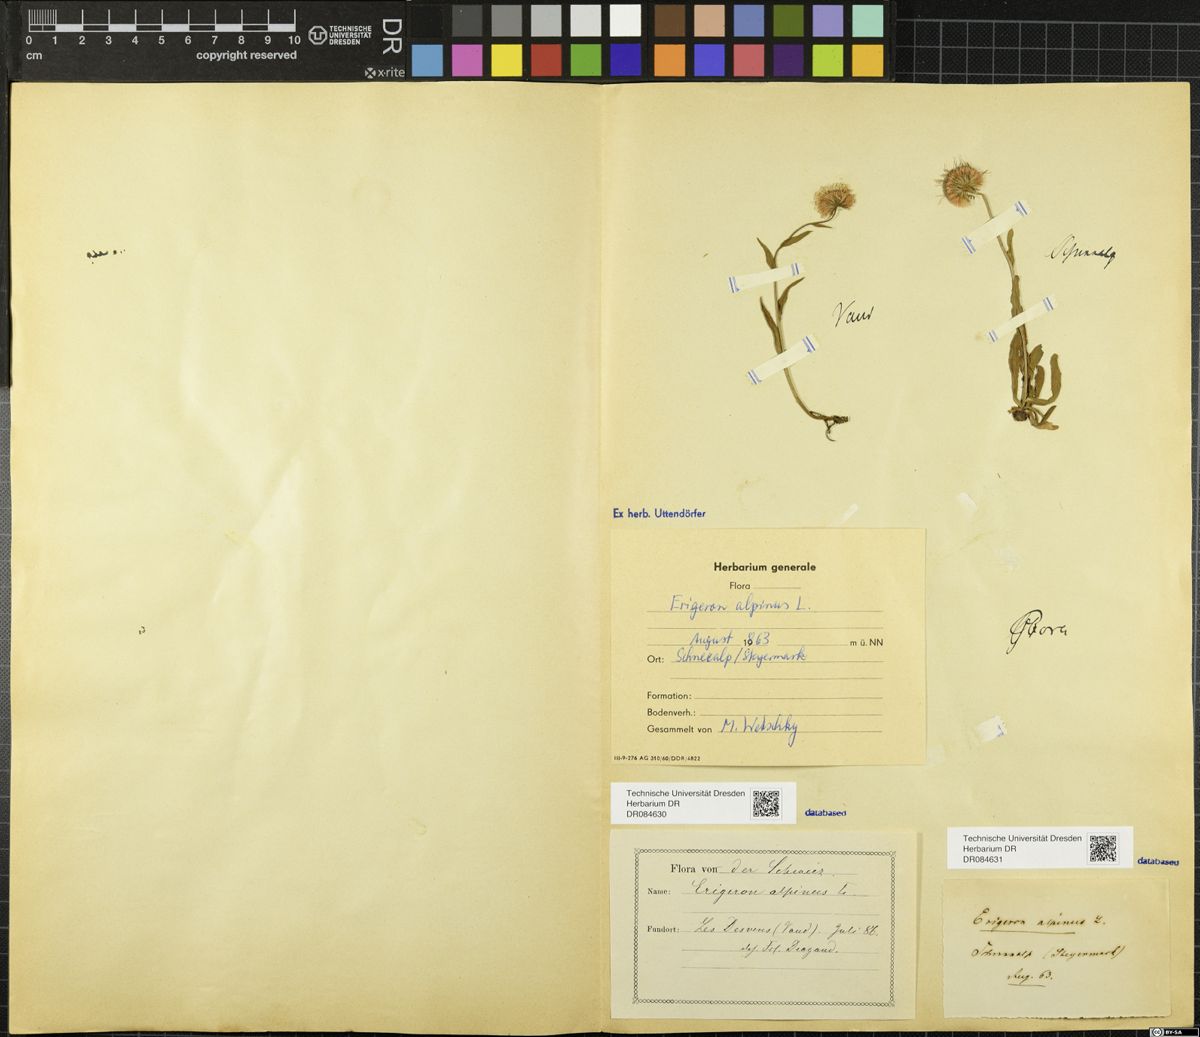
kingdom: Plantae
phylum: Tracheophyta
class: Magnoliopsida
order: Asterales
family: Asteraceae
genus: Erigeron
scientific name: Erigeron alpinus
